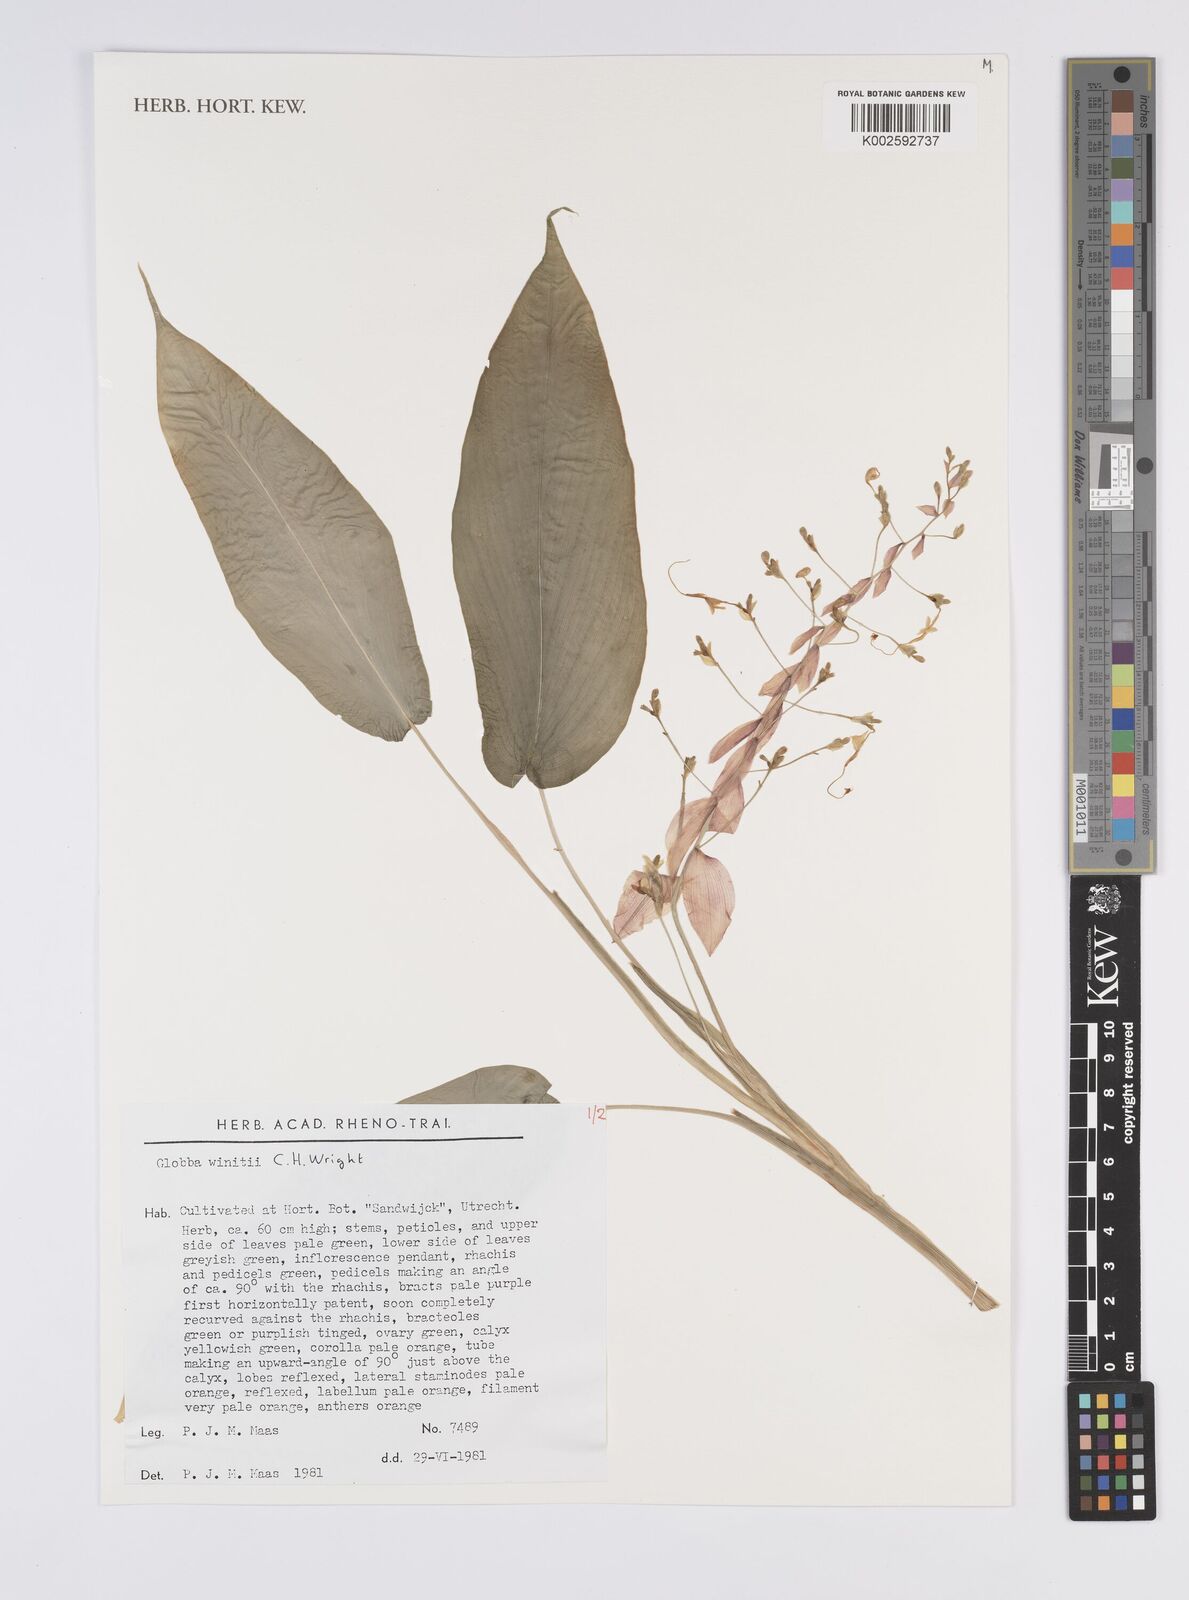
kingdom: Plantae
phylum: Tracheophyta
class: Liliopsida
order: Zingiberales
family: Zingiberaceae
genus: Globba
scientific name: Globba winitii
